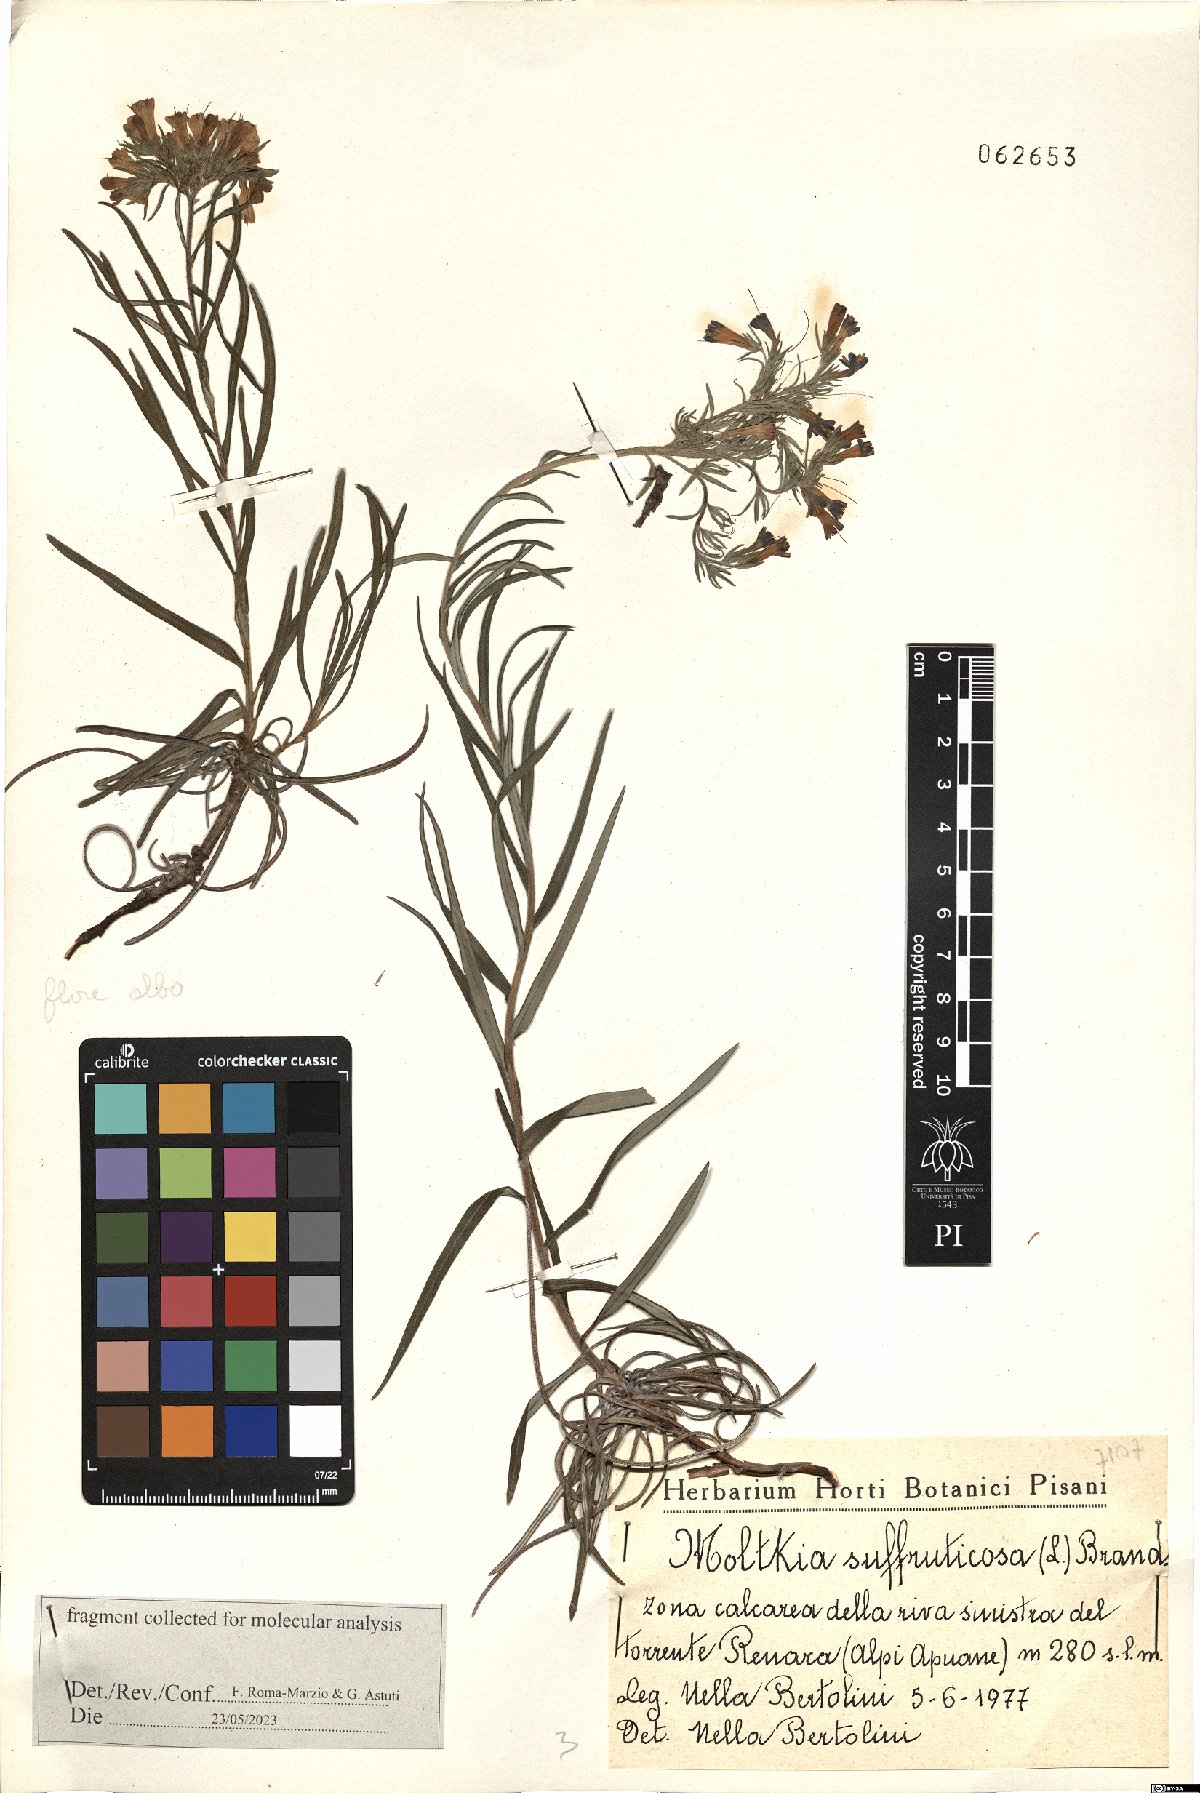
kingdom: Plantae
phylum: Tracheophyta
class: Magnoliopsida
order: Boraginales
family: Boraginaceae
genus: Moltkia
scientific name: Moltkia suffruticosa
